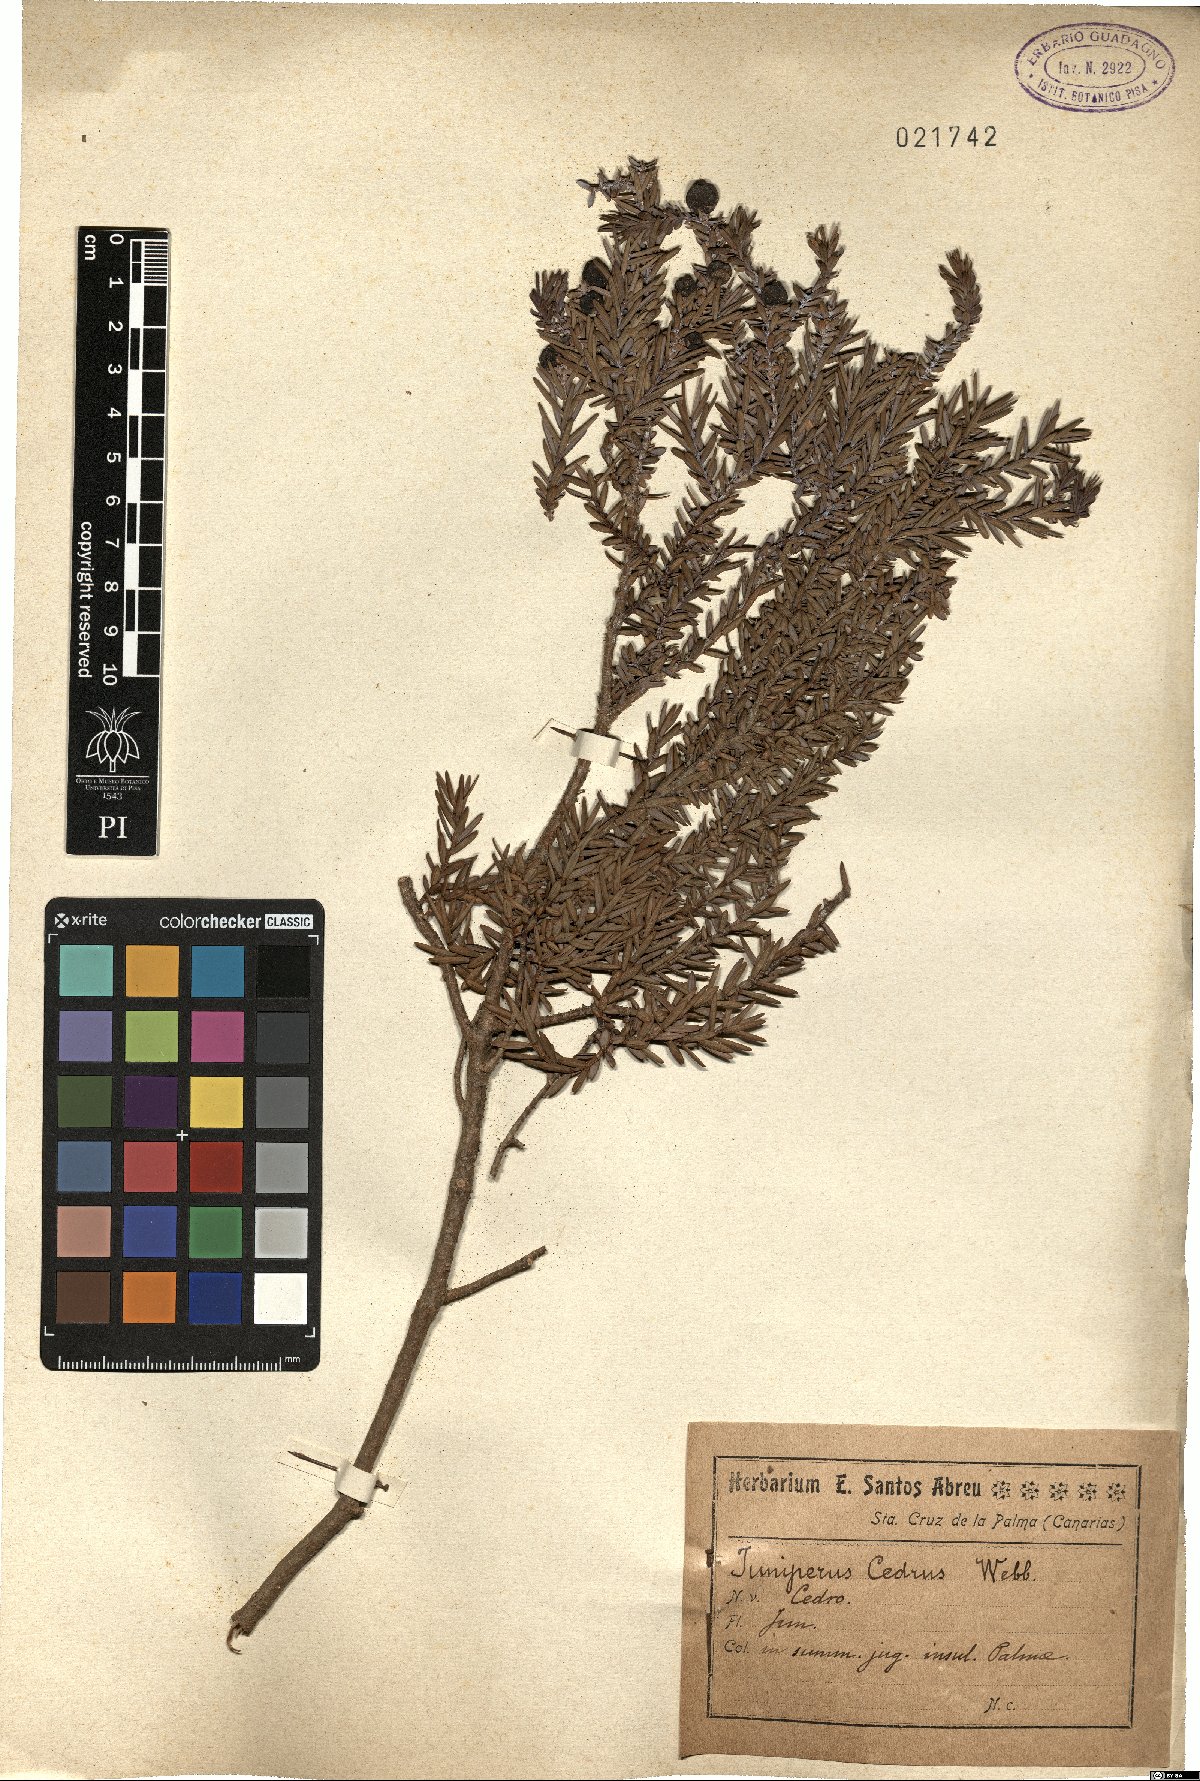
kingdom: Plantae
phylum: Tracheophyta
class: Pinopsida
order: Pinales
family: Cupressaceae
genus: Juniperus
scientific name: Juniperus cedrus
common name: Canary islands juniper
